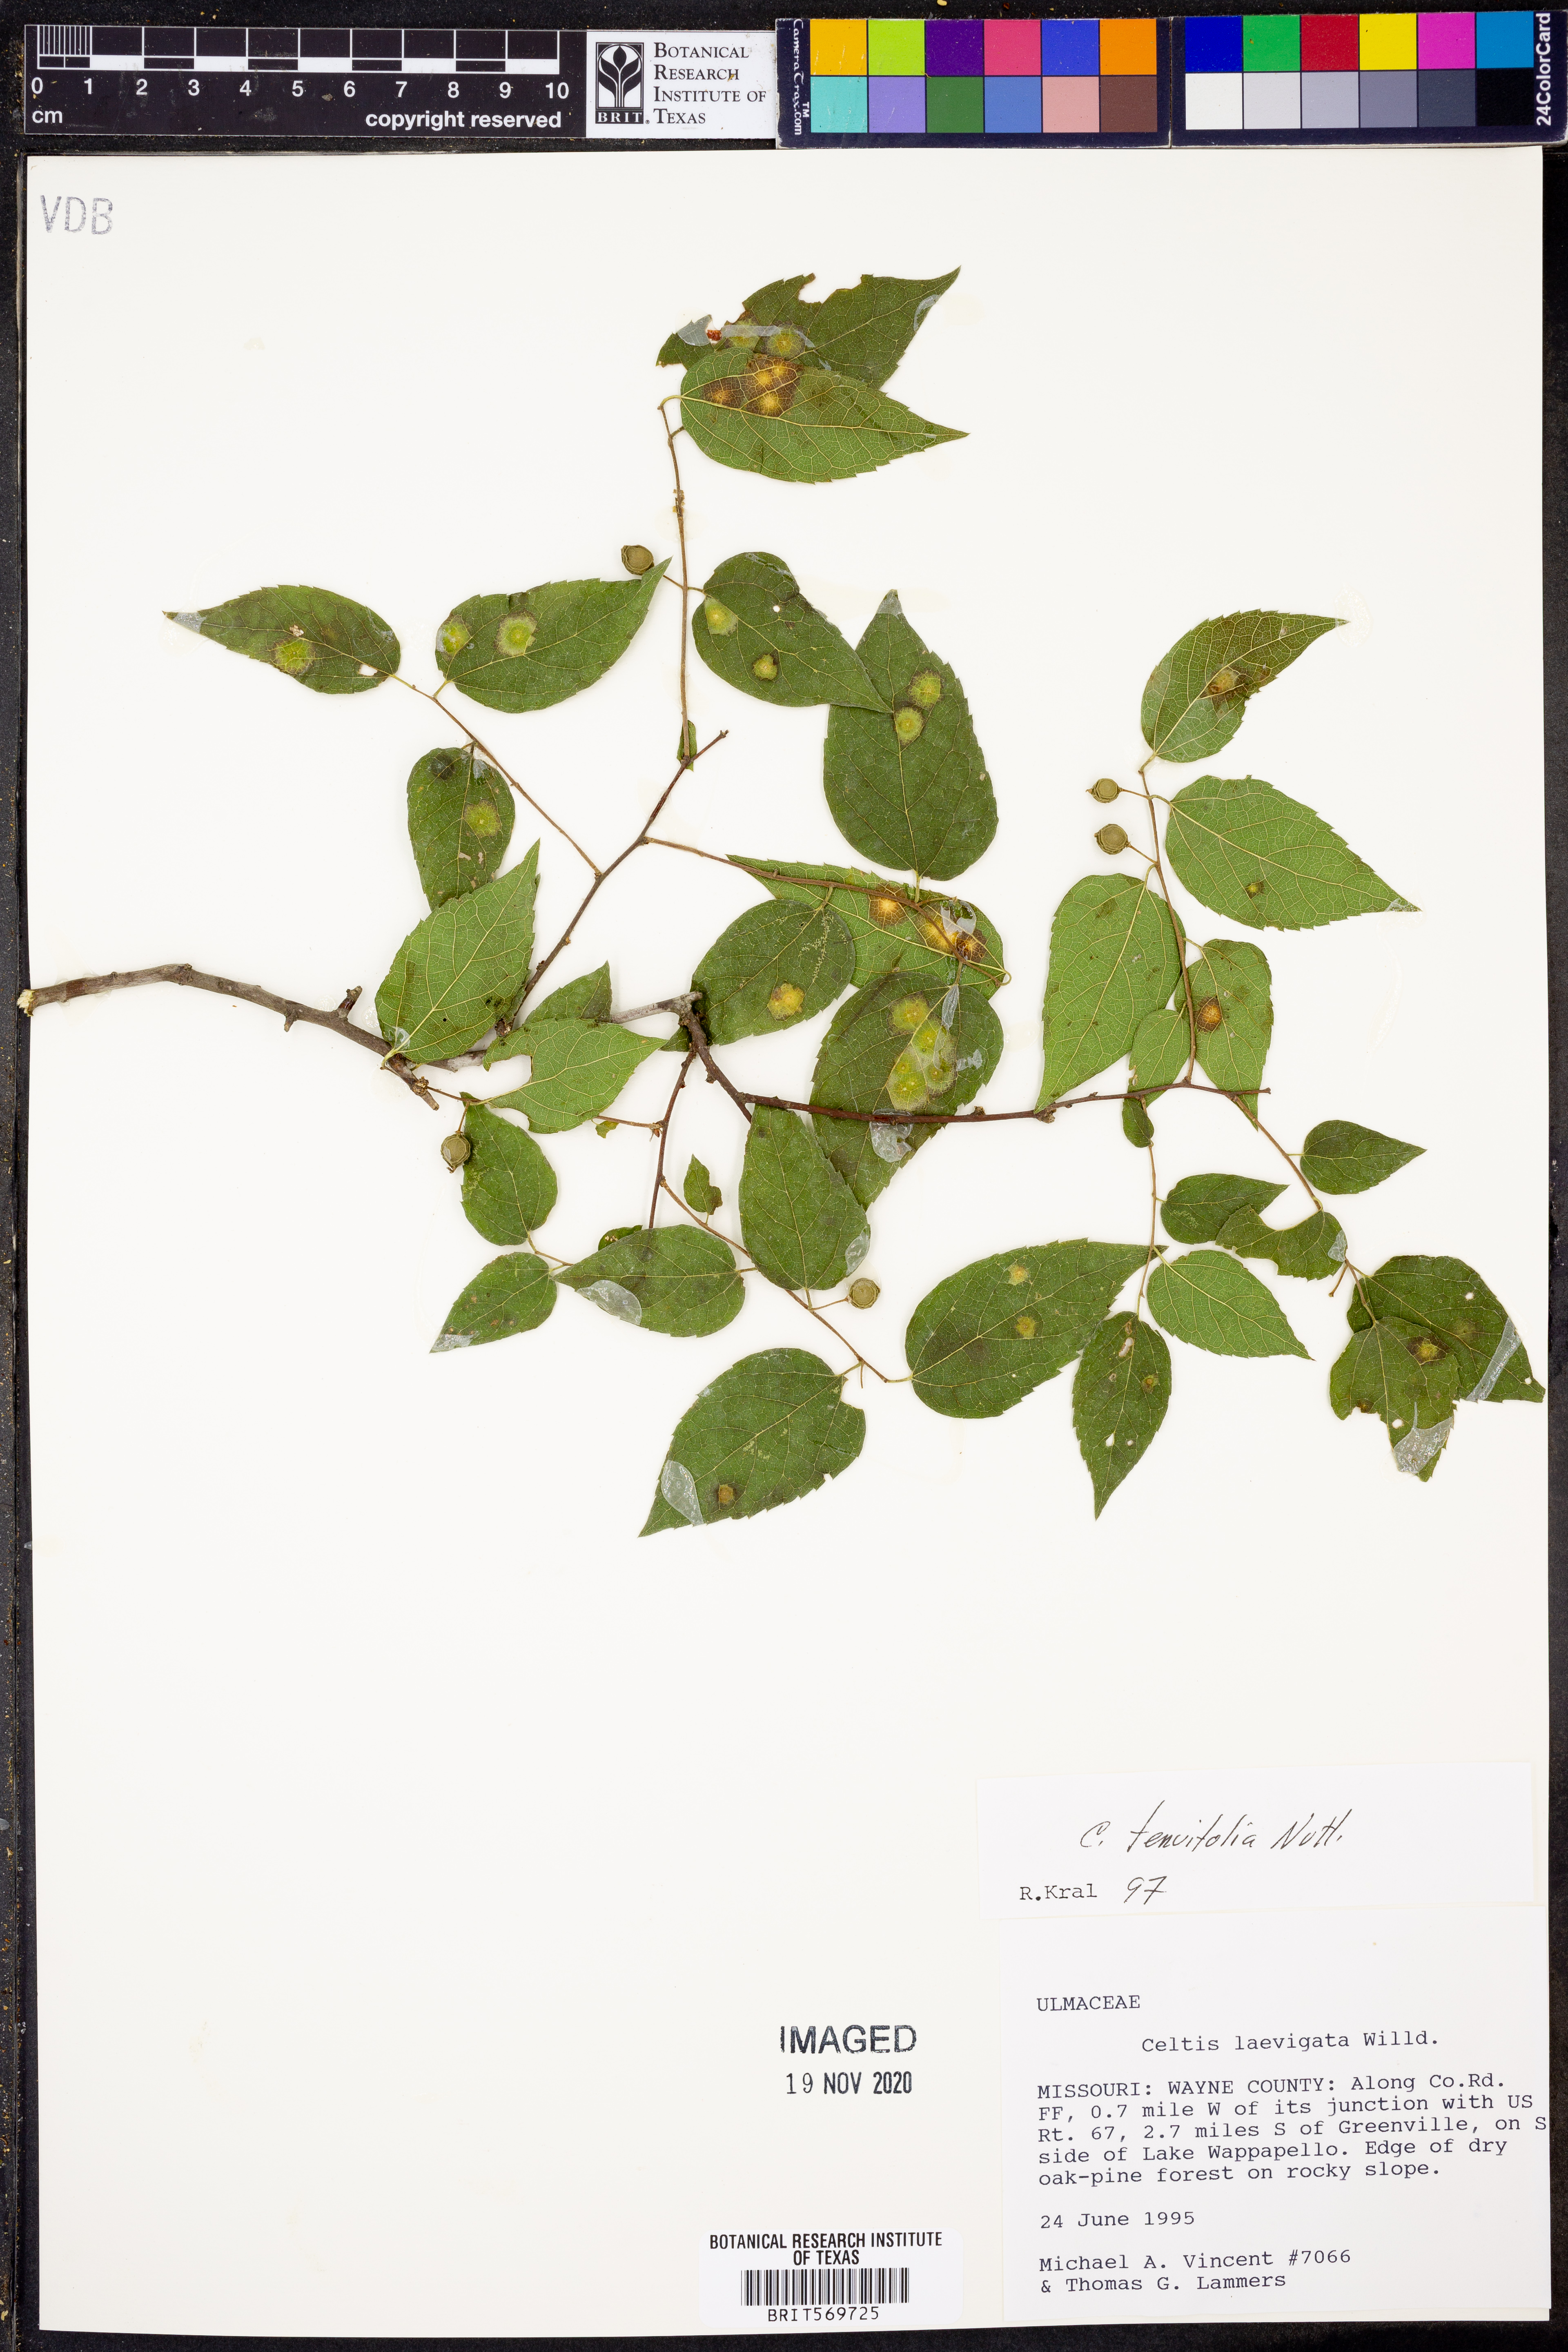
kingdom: Plantae
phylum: Tracheophyta
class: Magnoliopsida
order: Rosales
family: Cannabaceae
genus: Celtis
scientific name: Celtis tenuifolia
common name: Georgia hackberry
